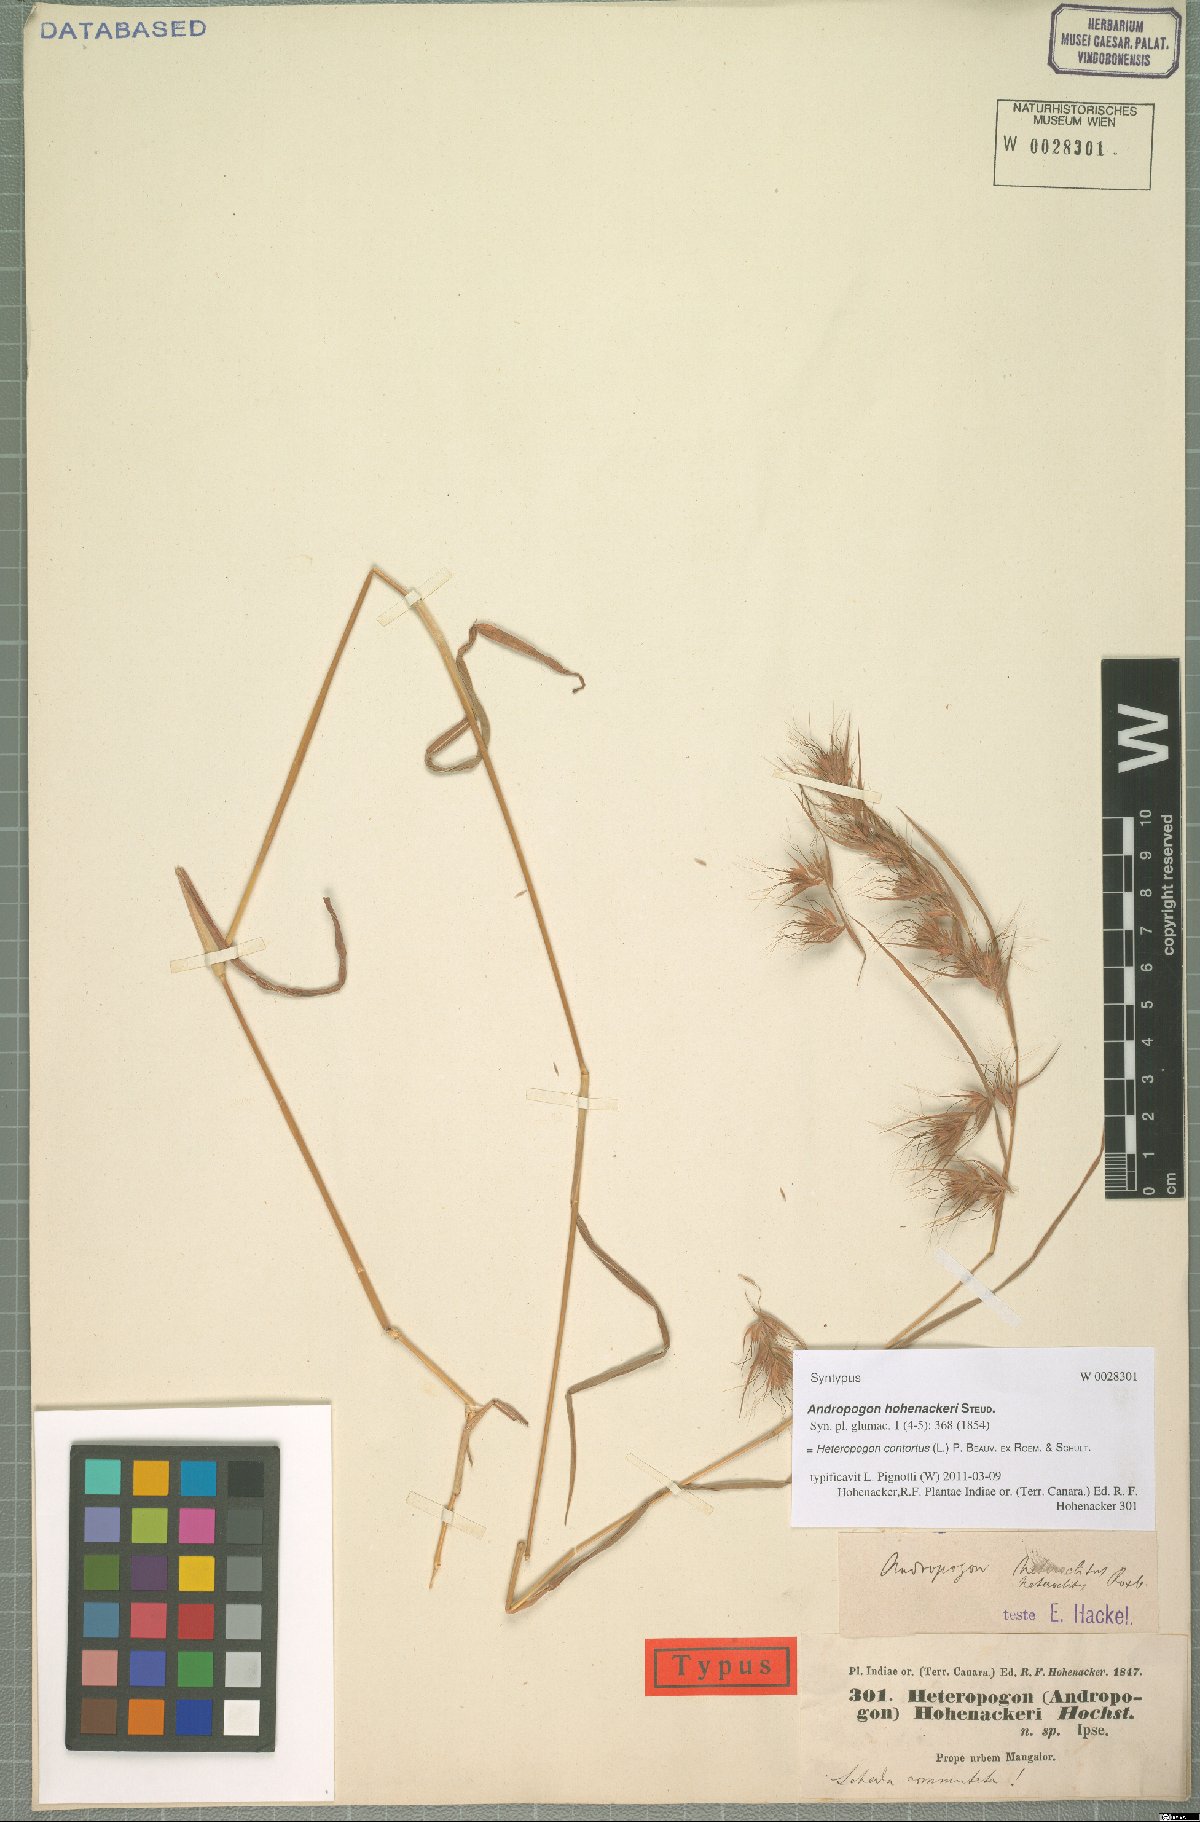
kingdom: Plantae
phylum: Tracheophyta
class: Liliopsida
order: Poales
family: Poaceae
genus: Heteropogon
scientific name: Heteropogon contortus
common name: Tanglehead
